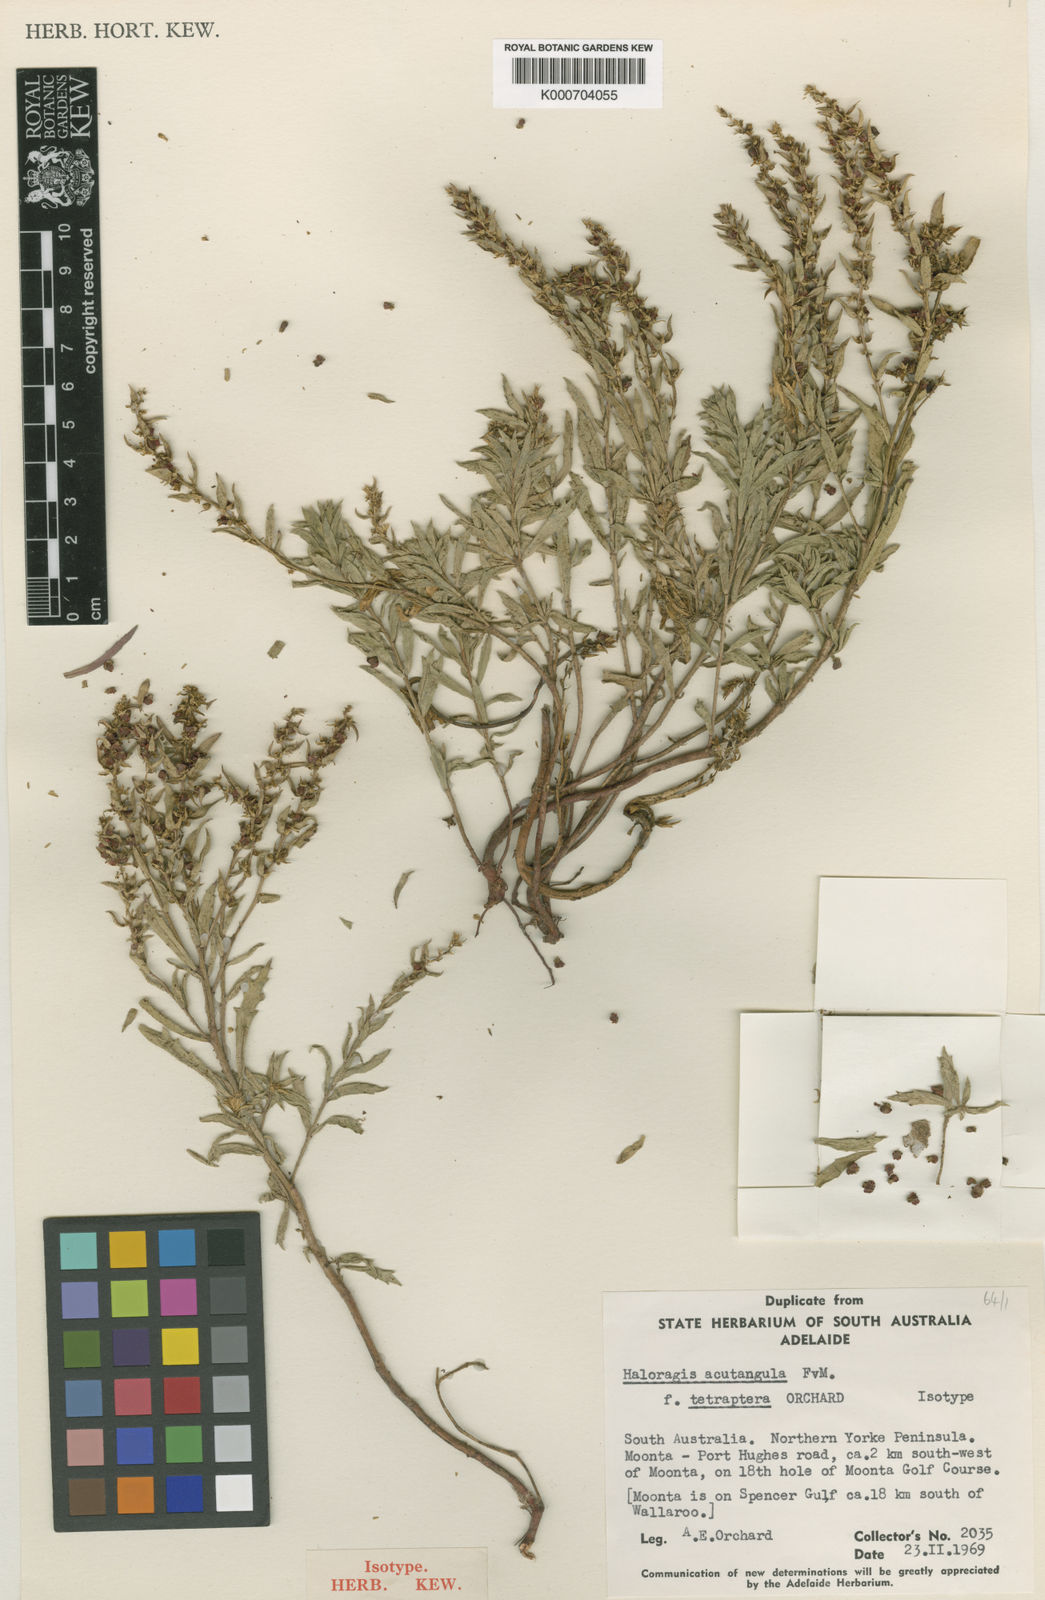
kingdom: Plantae
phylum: Tracheophyta
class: Magnoliopsida
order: Saxifragales
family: Haloragaceae
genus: Haloragis
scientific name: Haloragis
